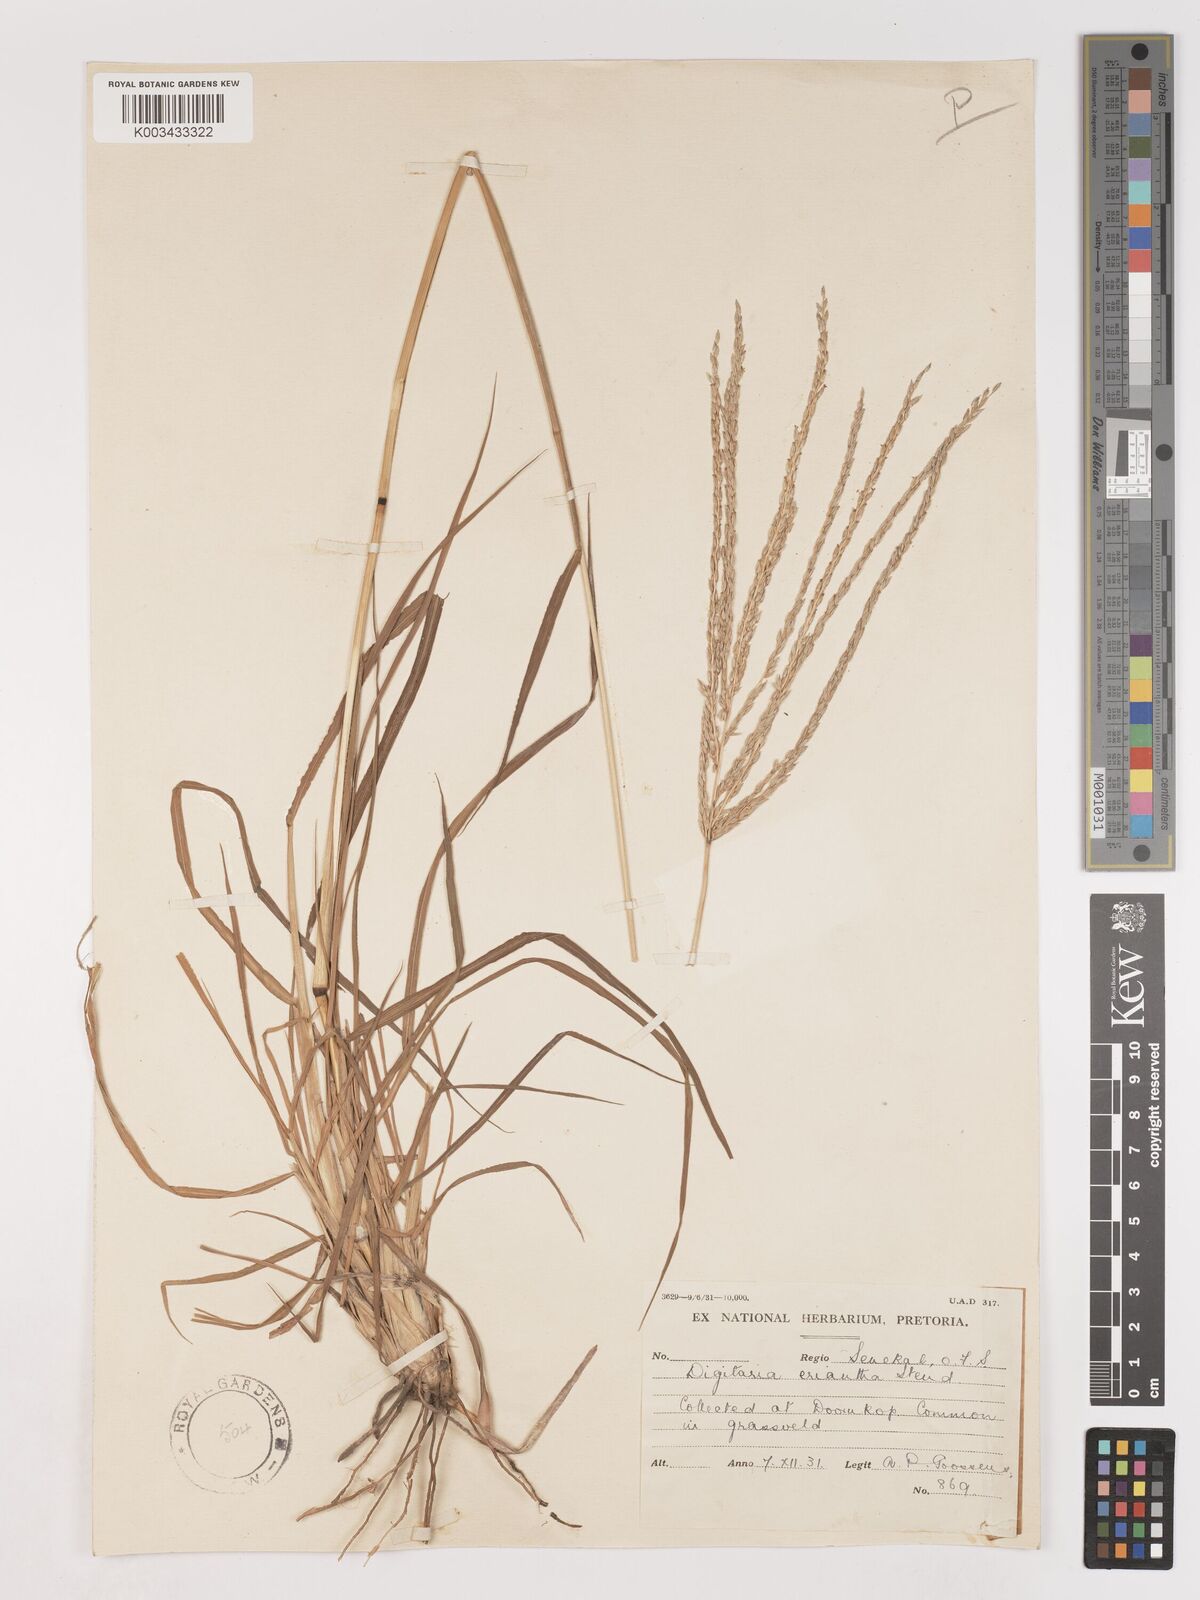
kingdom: Plantae
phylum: Tracheophyta
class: Liliopsida
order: Poales
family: Poaceae
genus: Digitaria
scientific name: Digitaria eriantha
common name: Digitgrass
